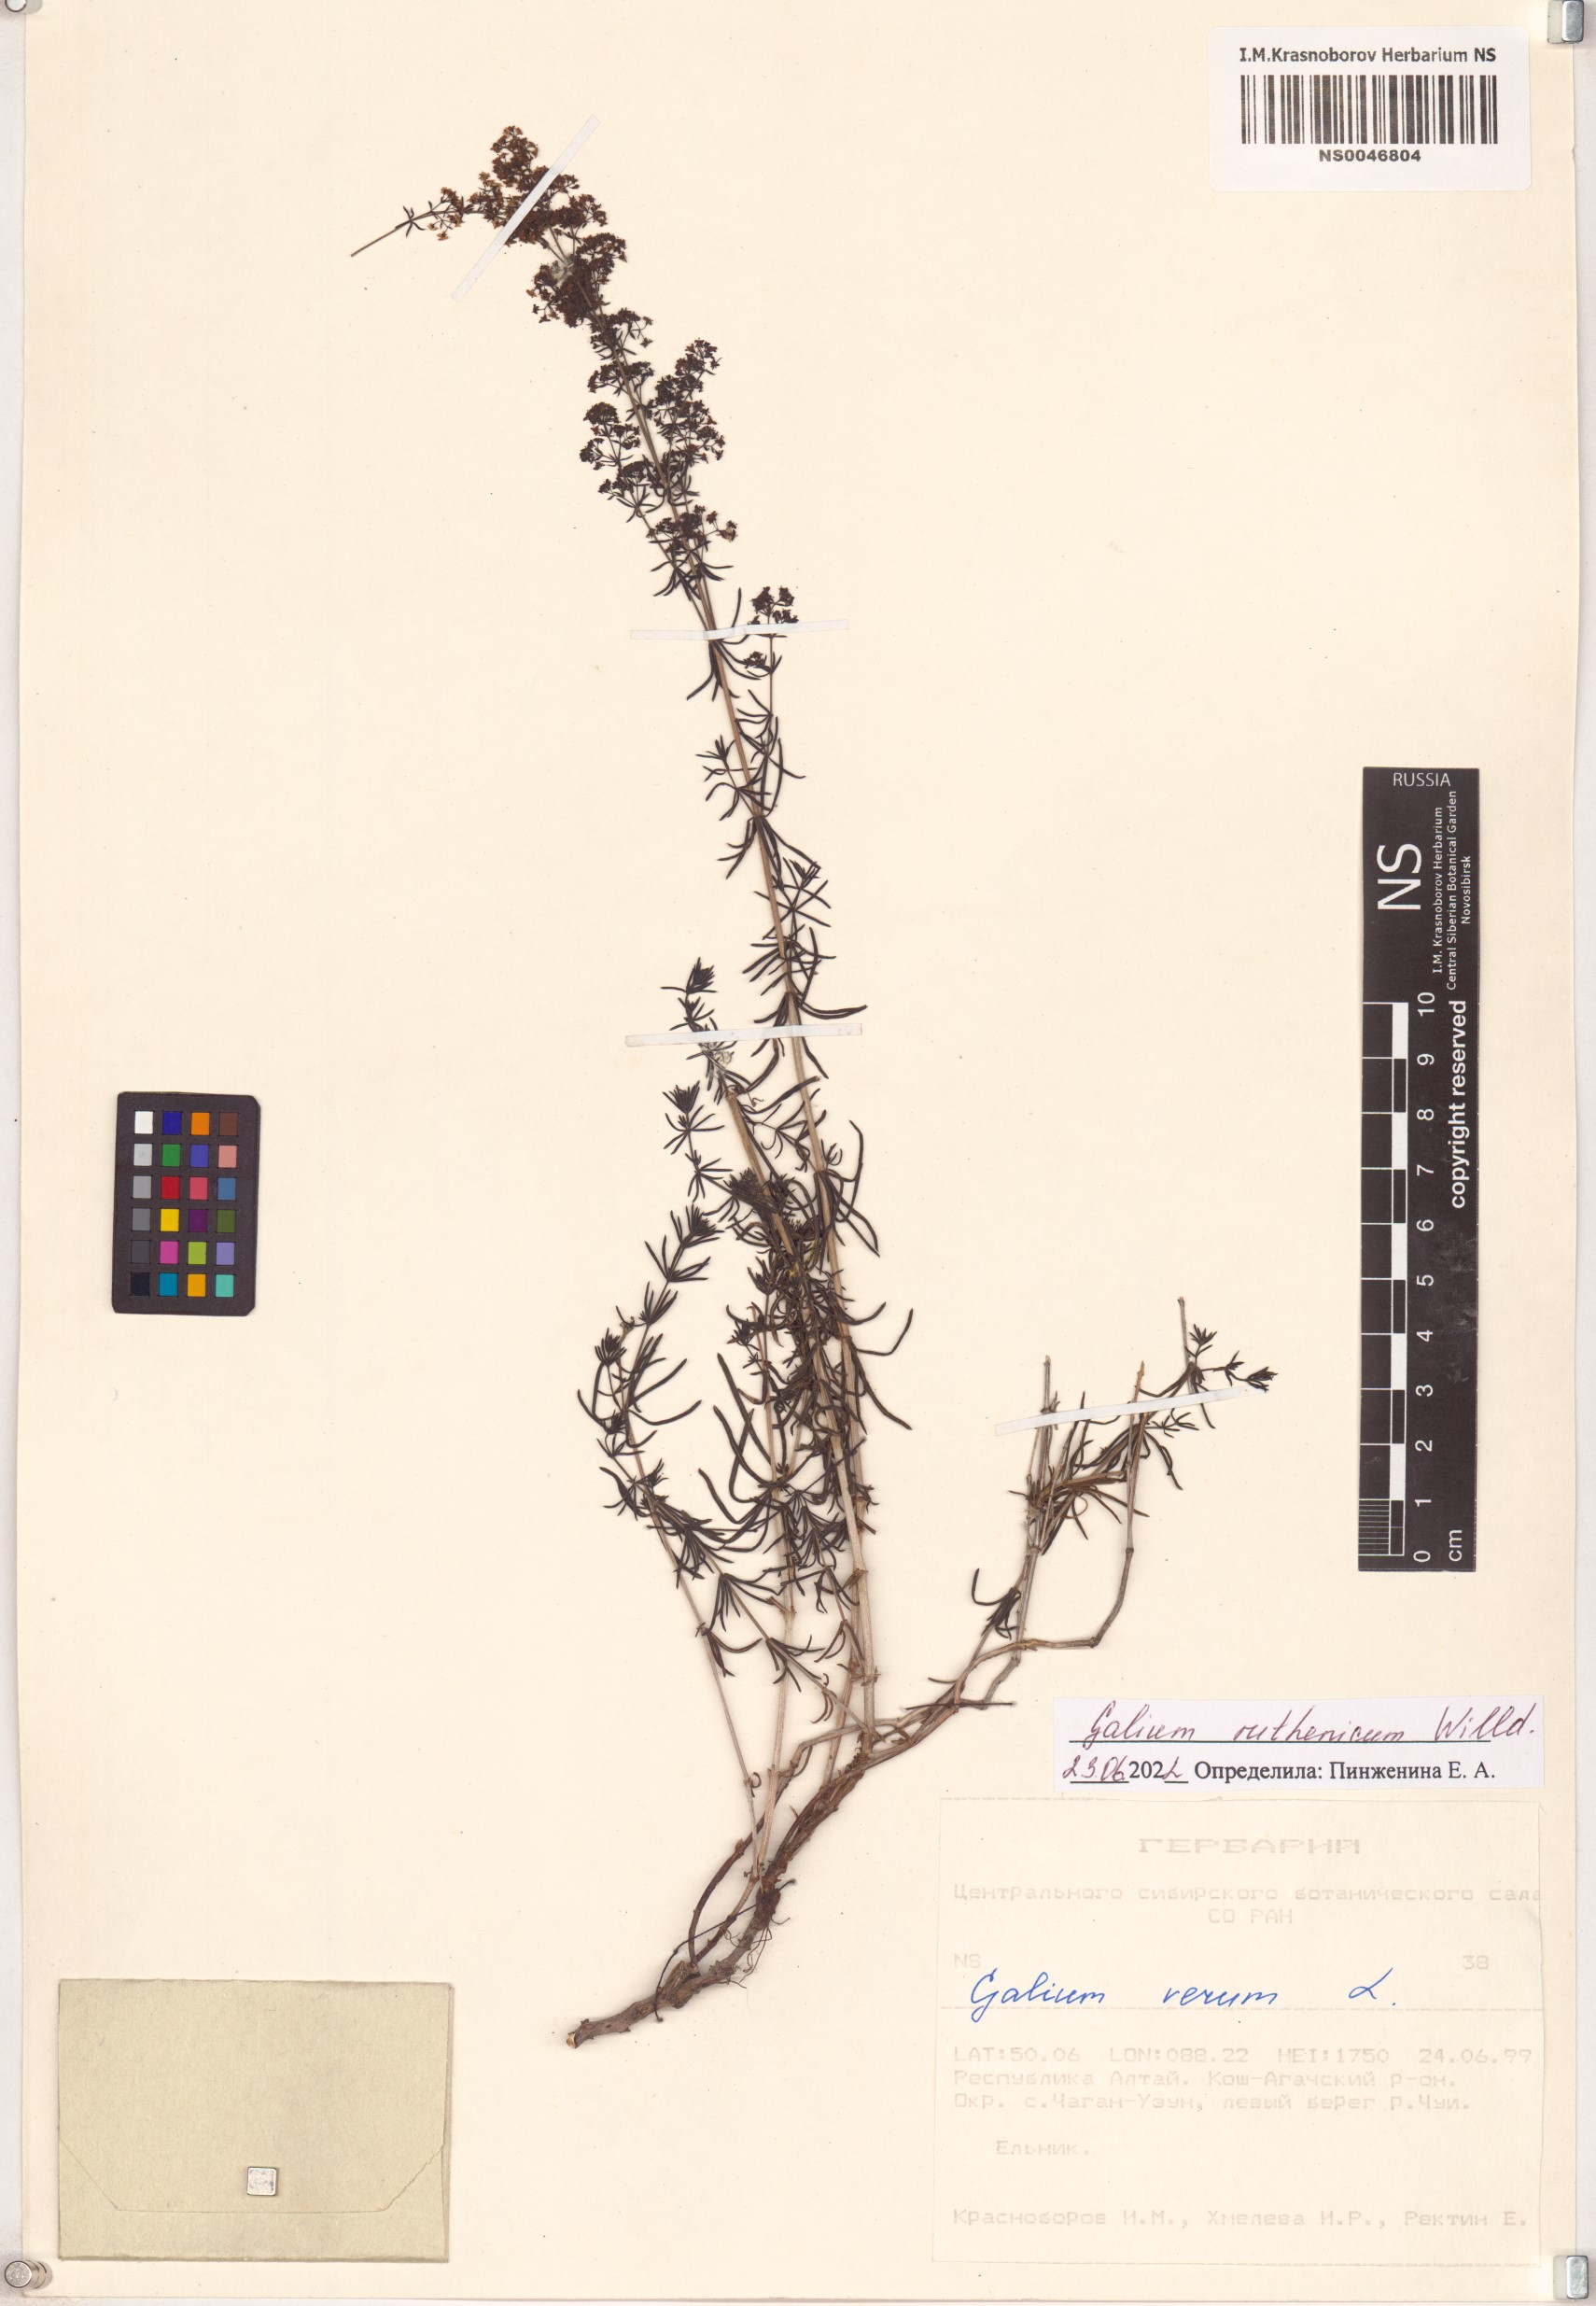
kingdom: Plantae
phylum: Tracheophyta
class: Magnoliopsida
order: Gentianales
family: Rubiaceae
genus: Galium
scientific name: Galium verum
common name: Lady's bedstraw
